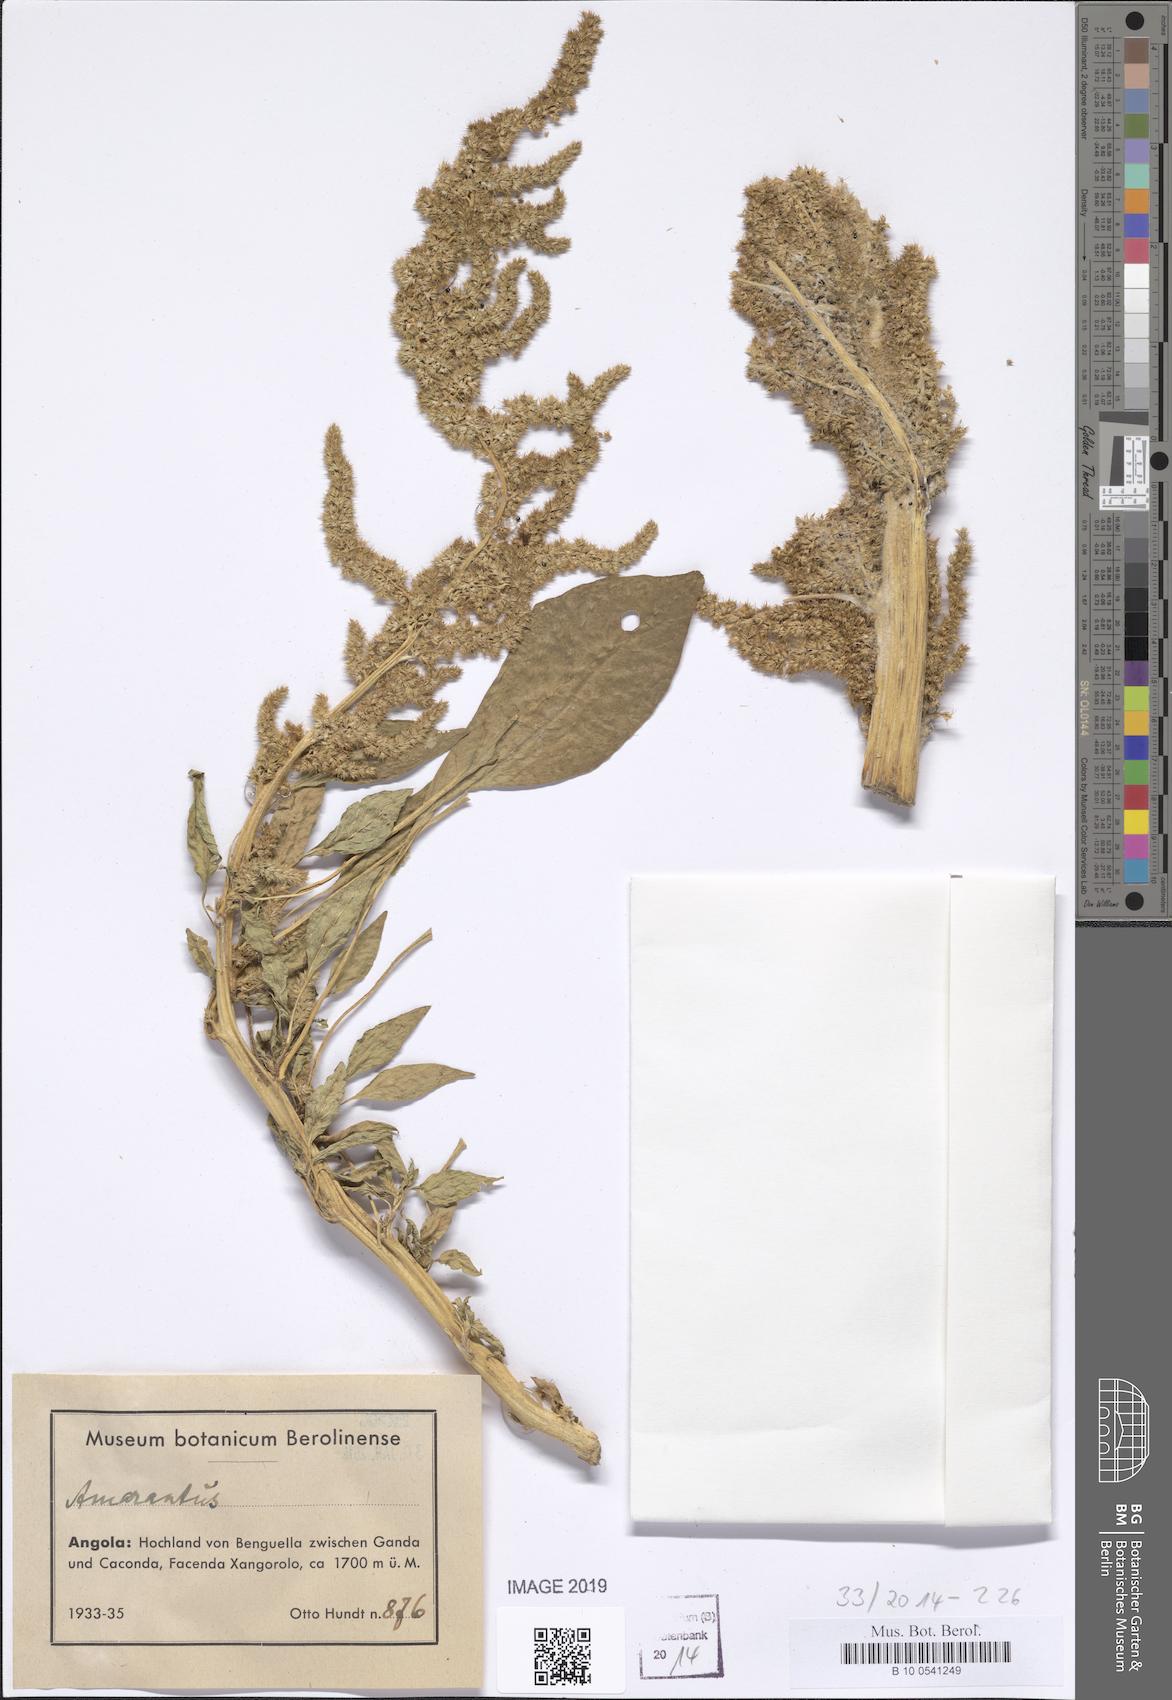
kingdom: Plantae
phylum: Tracheophyta
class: Magnoliopsida
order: Caryophyllales
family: Amaranthaceae
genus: Amaranthus
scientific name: Amaranthus
